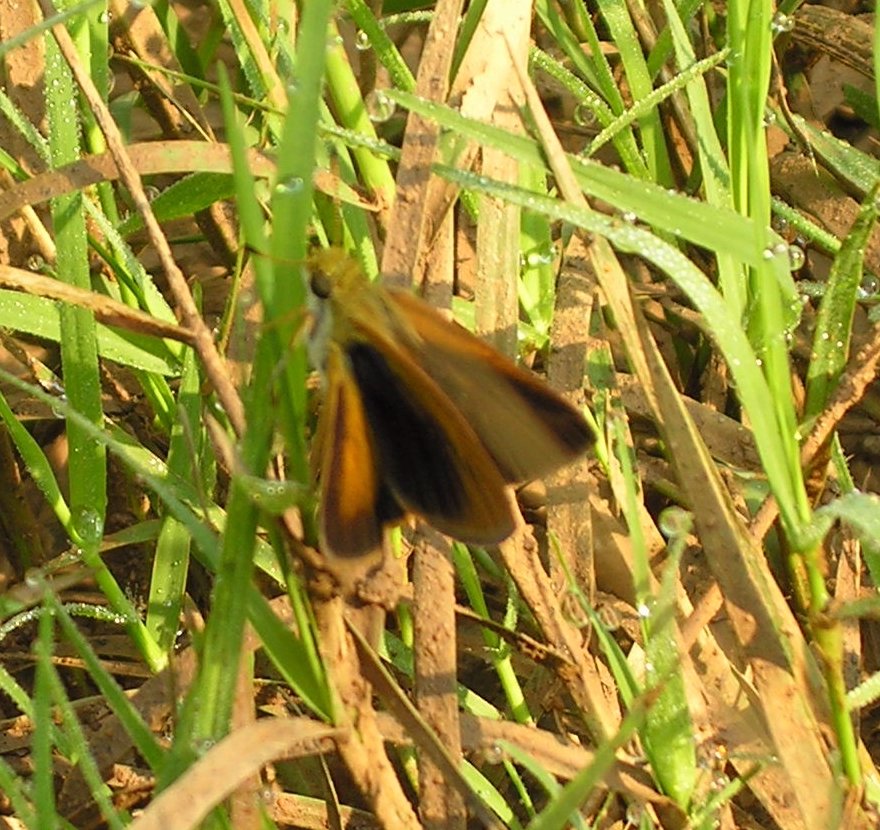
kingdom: Animalia
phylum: Arthropoda
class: Insecta
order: Lepidoptera
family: Hesperiidae
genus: Euphyes
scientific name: Euphyes dukesi
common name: Dukes' Skipper
